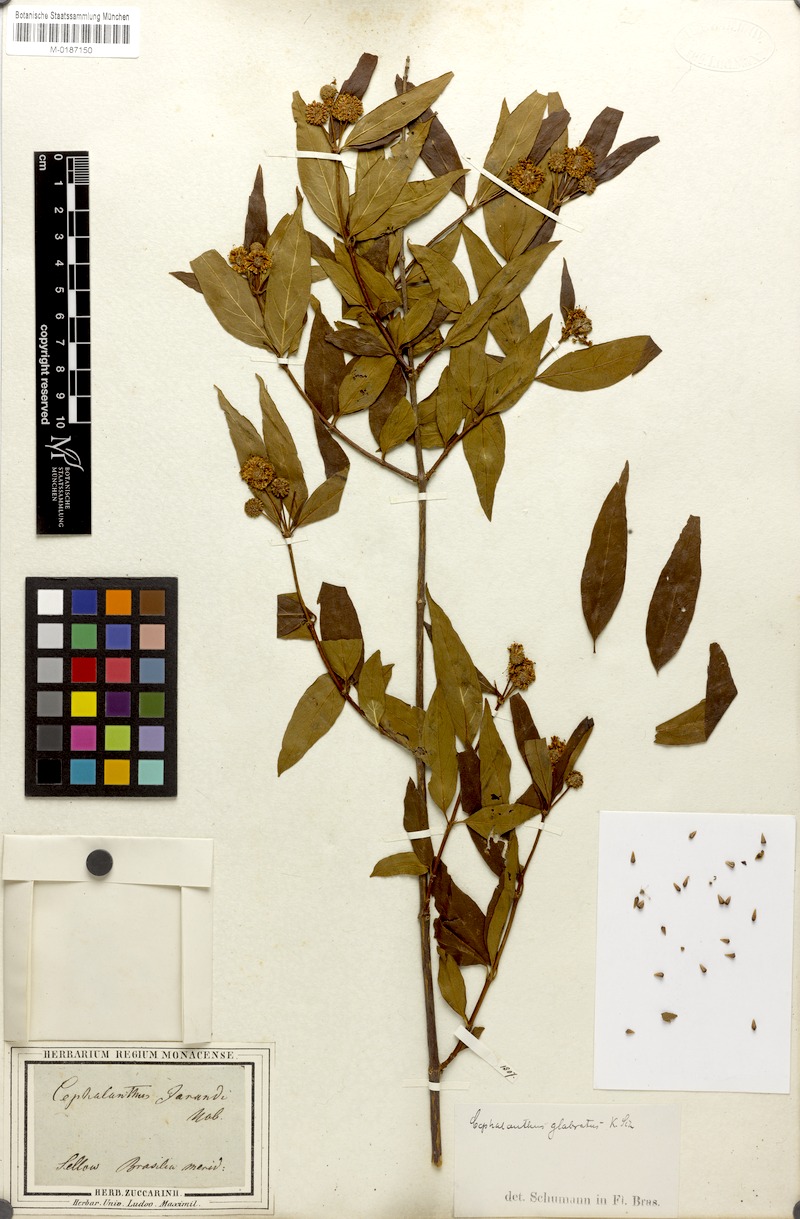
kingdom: Plantae
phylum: Tracheophyta
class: Magnoliopsida
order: Gentianales
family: Rubiaceae
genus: Cephalanthus
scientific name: Cephalanthus glabratus
